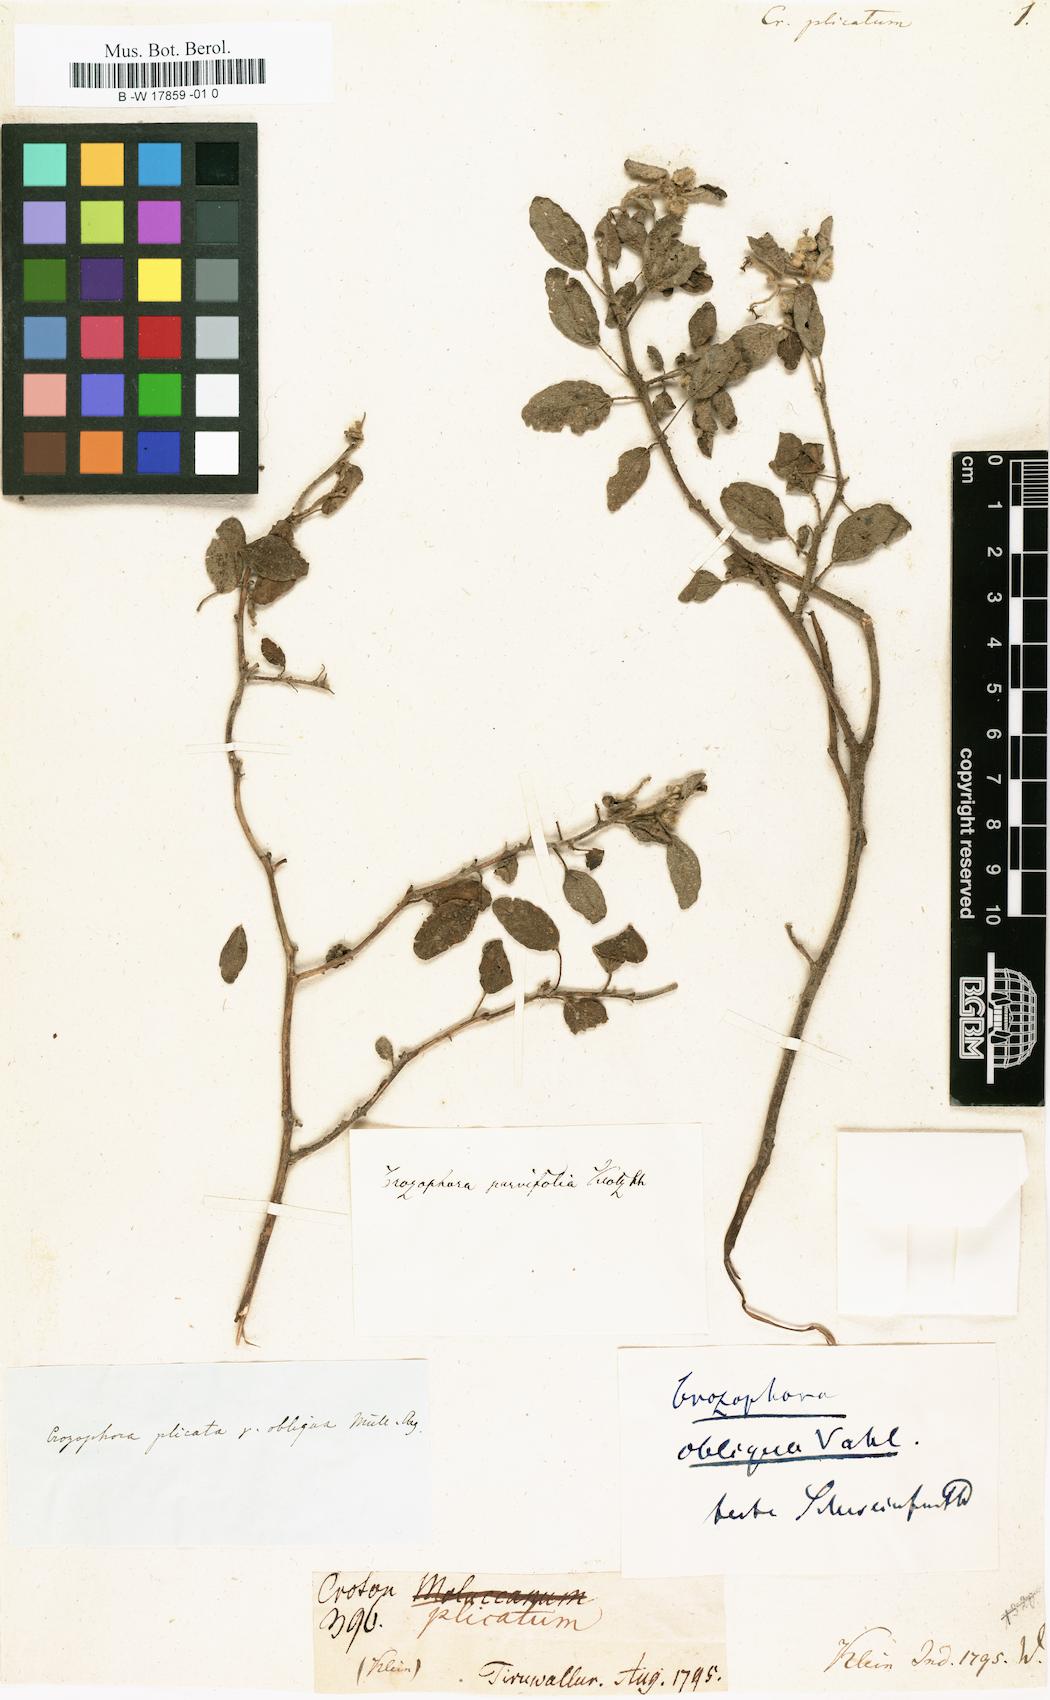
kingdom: Plantae
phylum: Tracheophyta
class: Magnoliopsida
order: Malpighiales
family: Euphorbiaceae
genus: Chrozophora
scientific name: Chrozophora plicata
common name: Giradol
